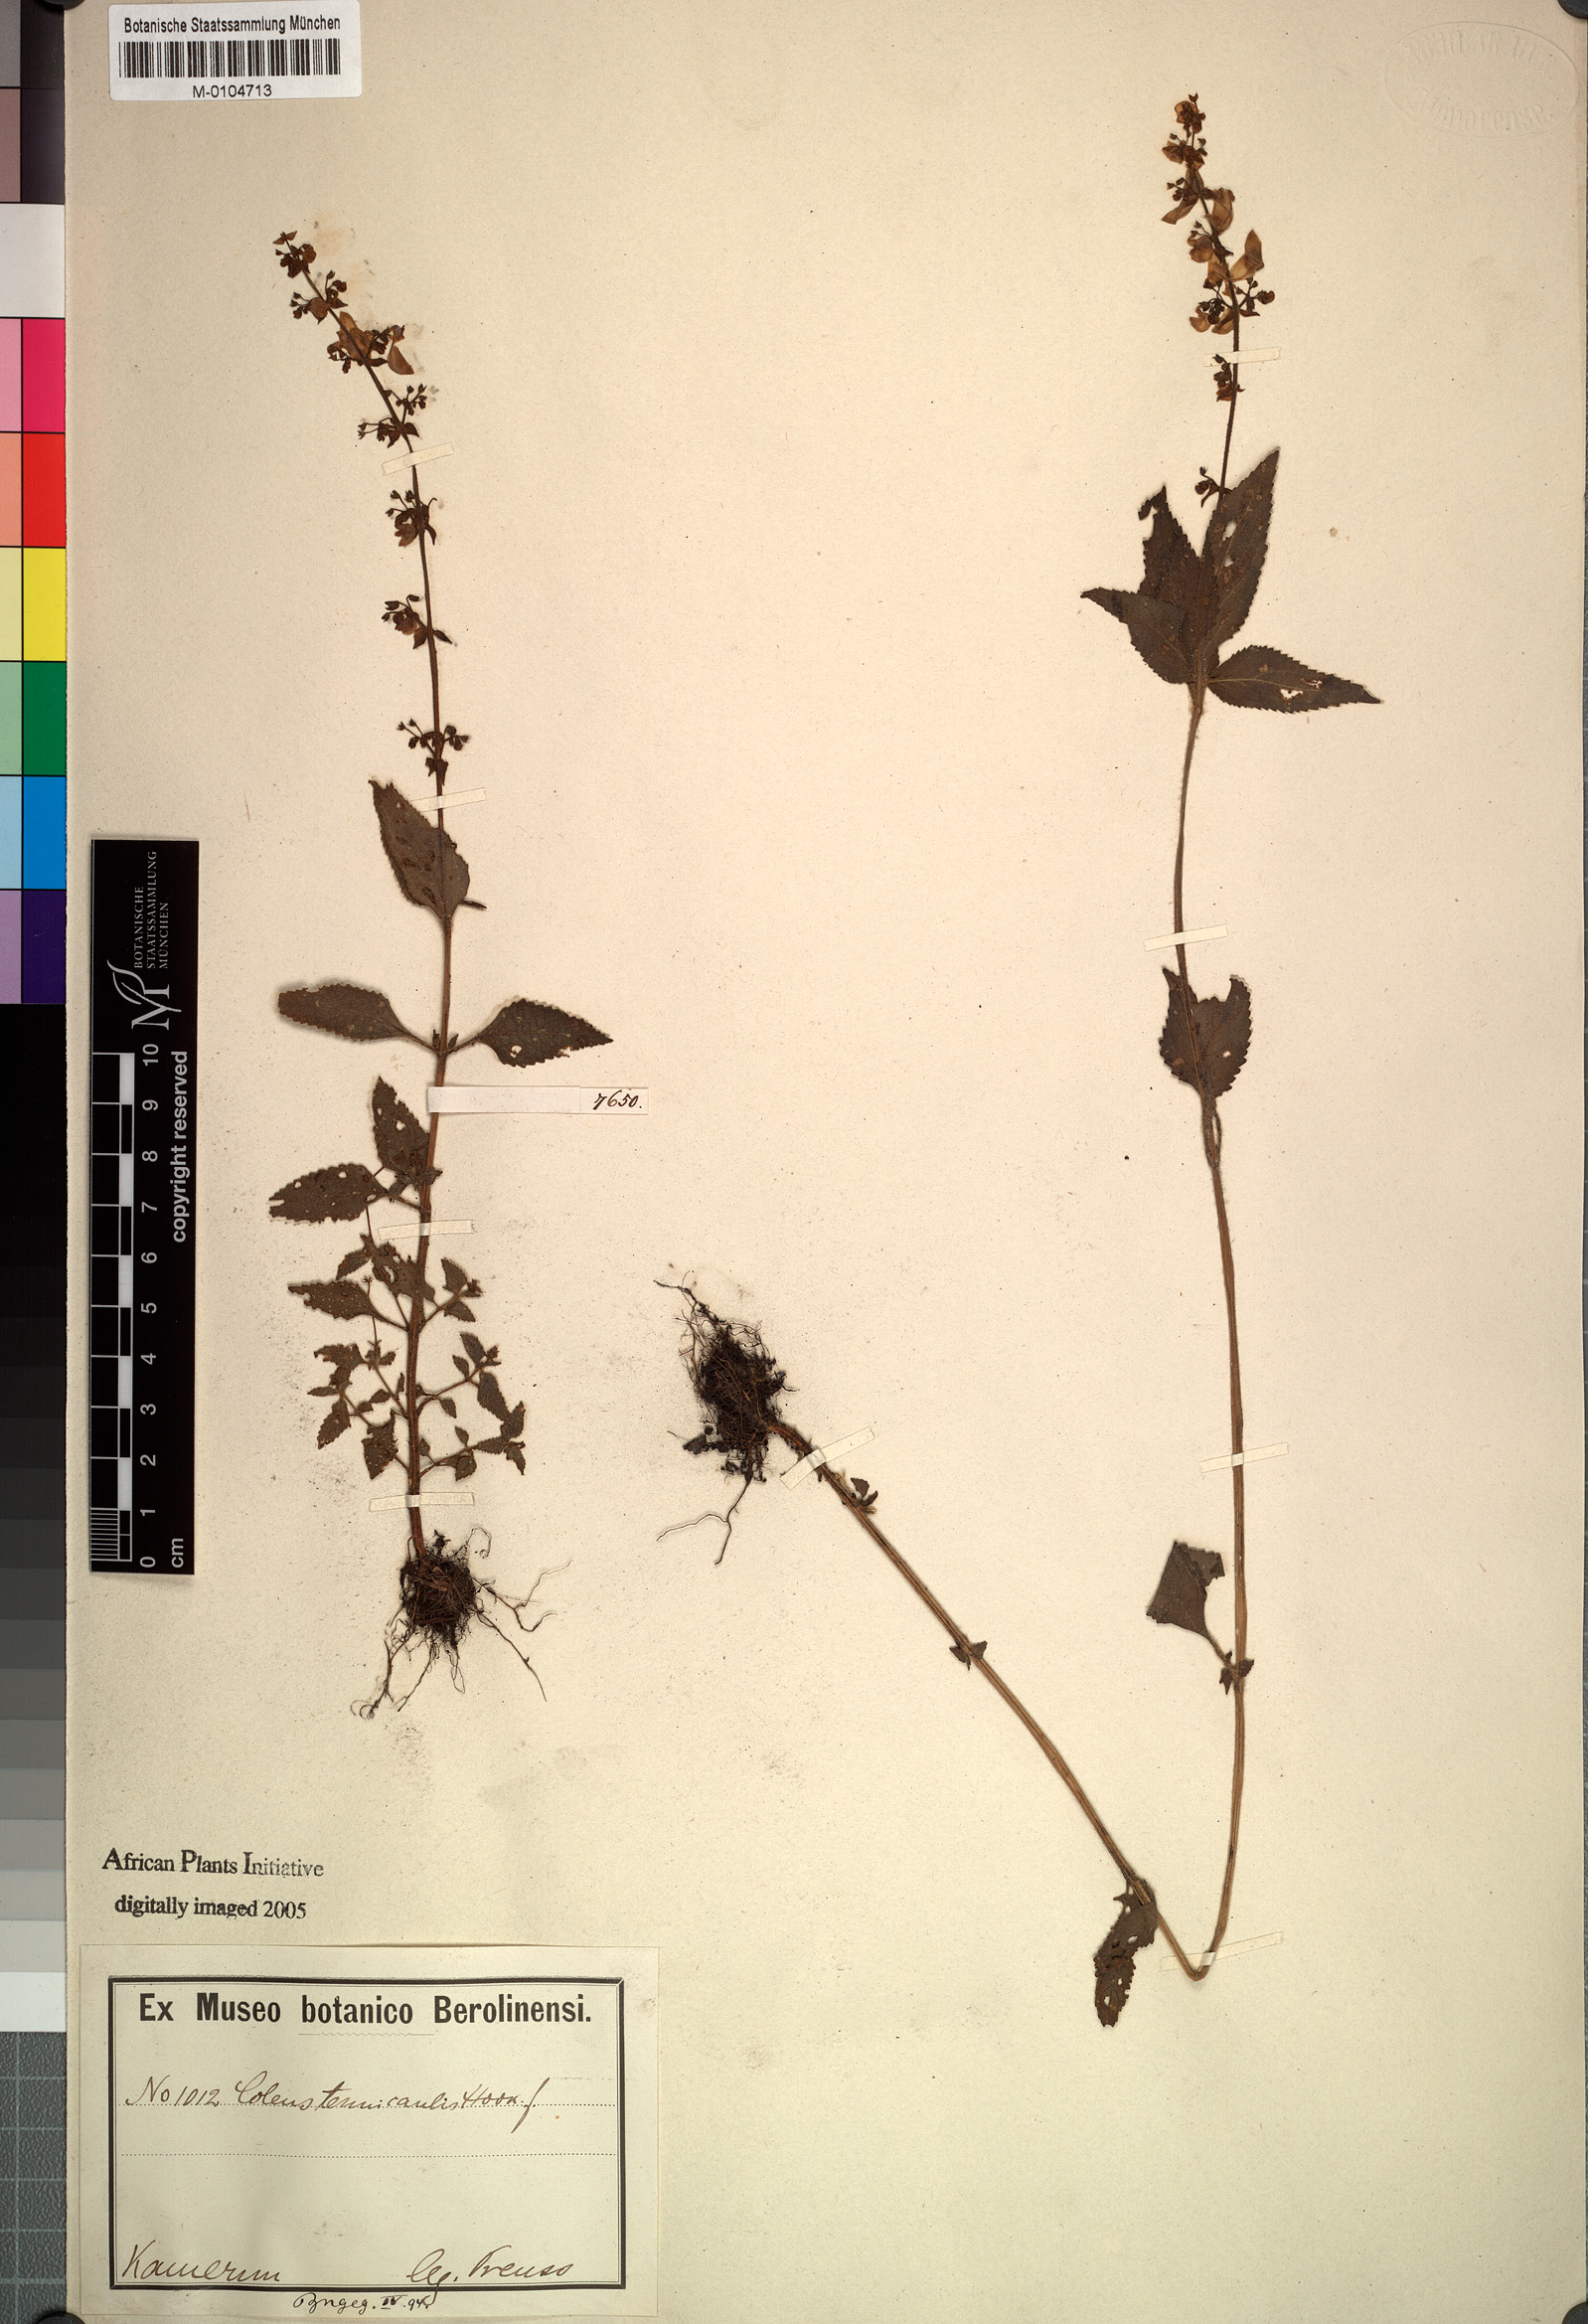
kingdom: Plantae
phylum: Tracheophyta
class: Magnoliopsida
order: Lamiales
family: Lamiaceae
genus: Coleus
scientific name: Coleus tenuicaulis
